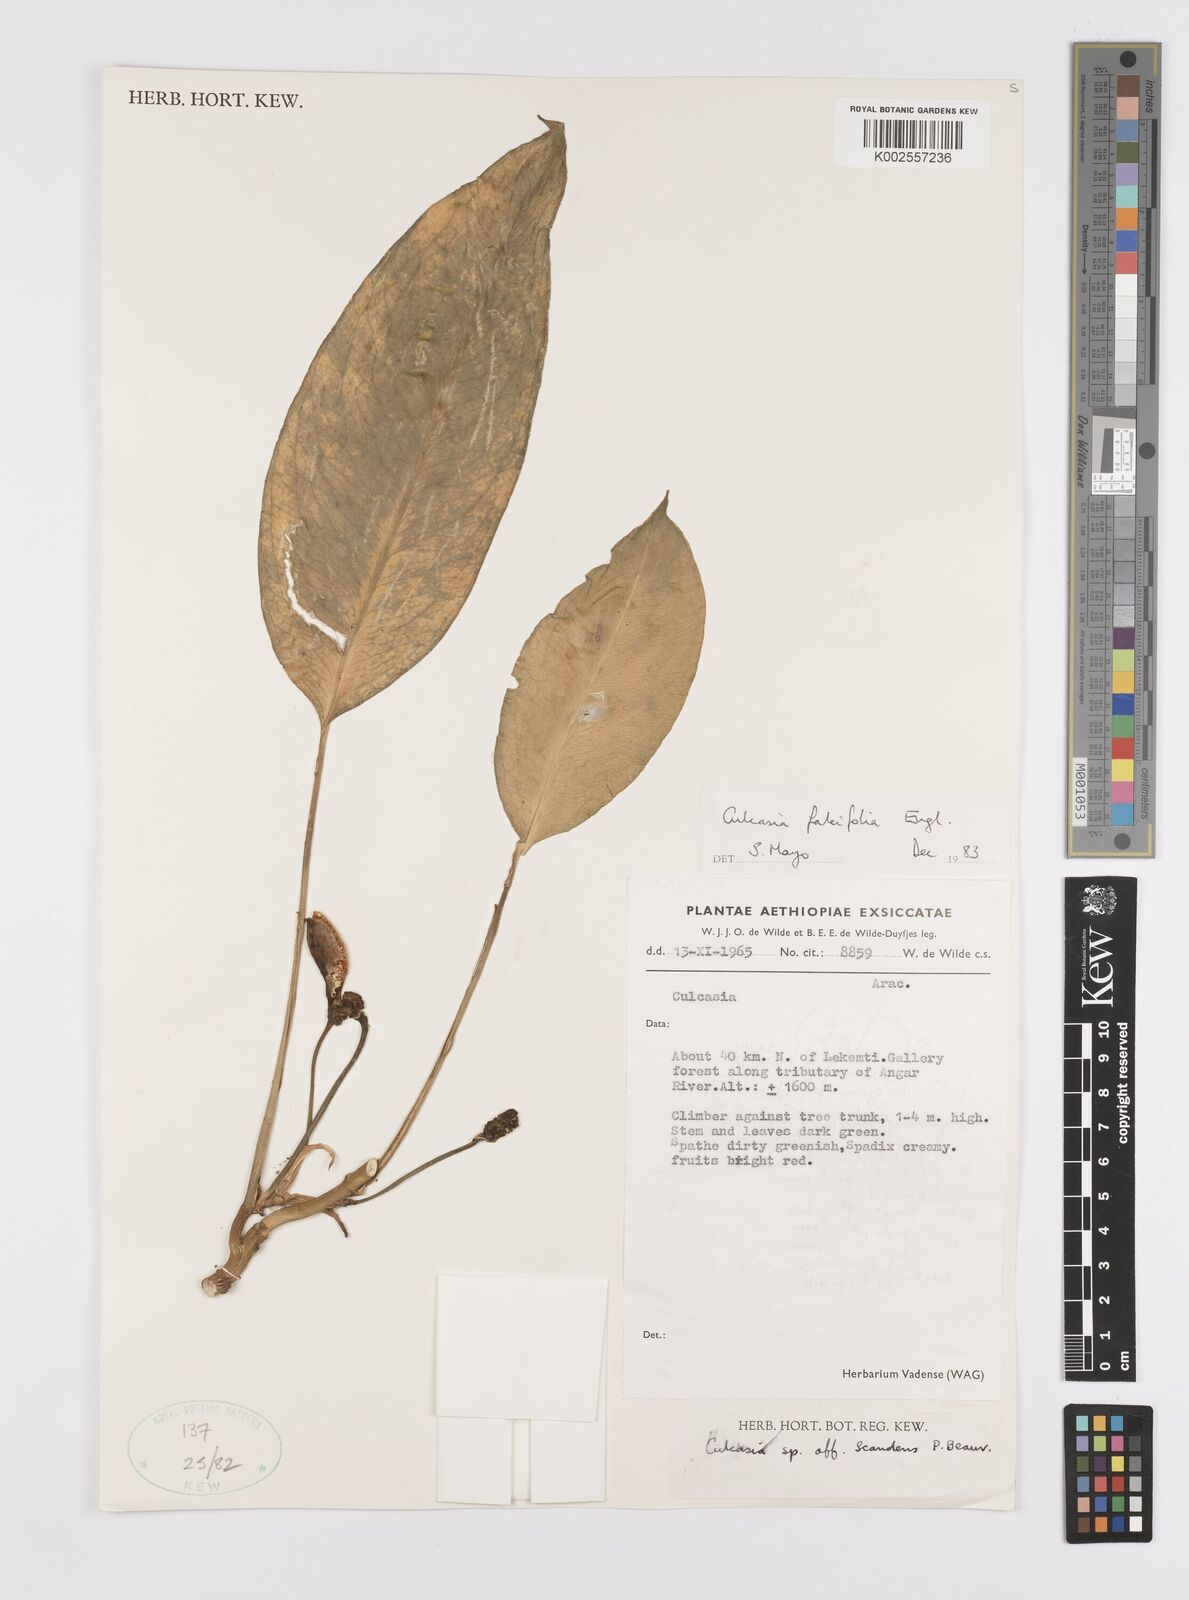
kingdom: Plantae
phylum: Tracheophyta
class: Liliopsida
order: Alismatales
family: Araceae
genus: Culcasia
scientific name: Culcasia falcifolia
